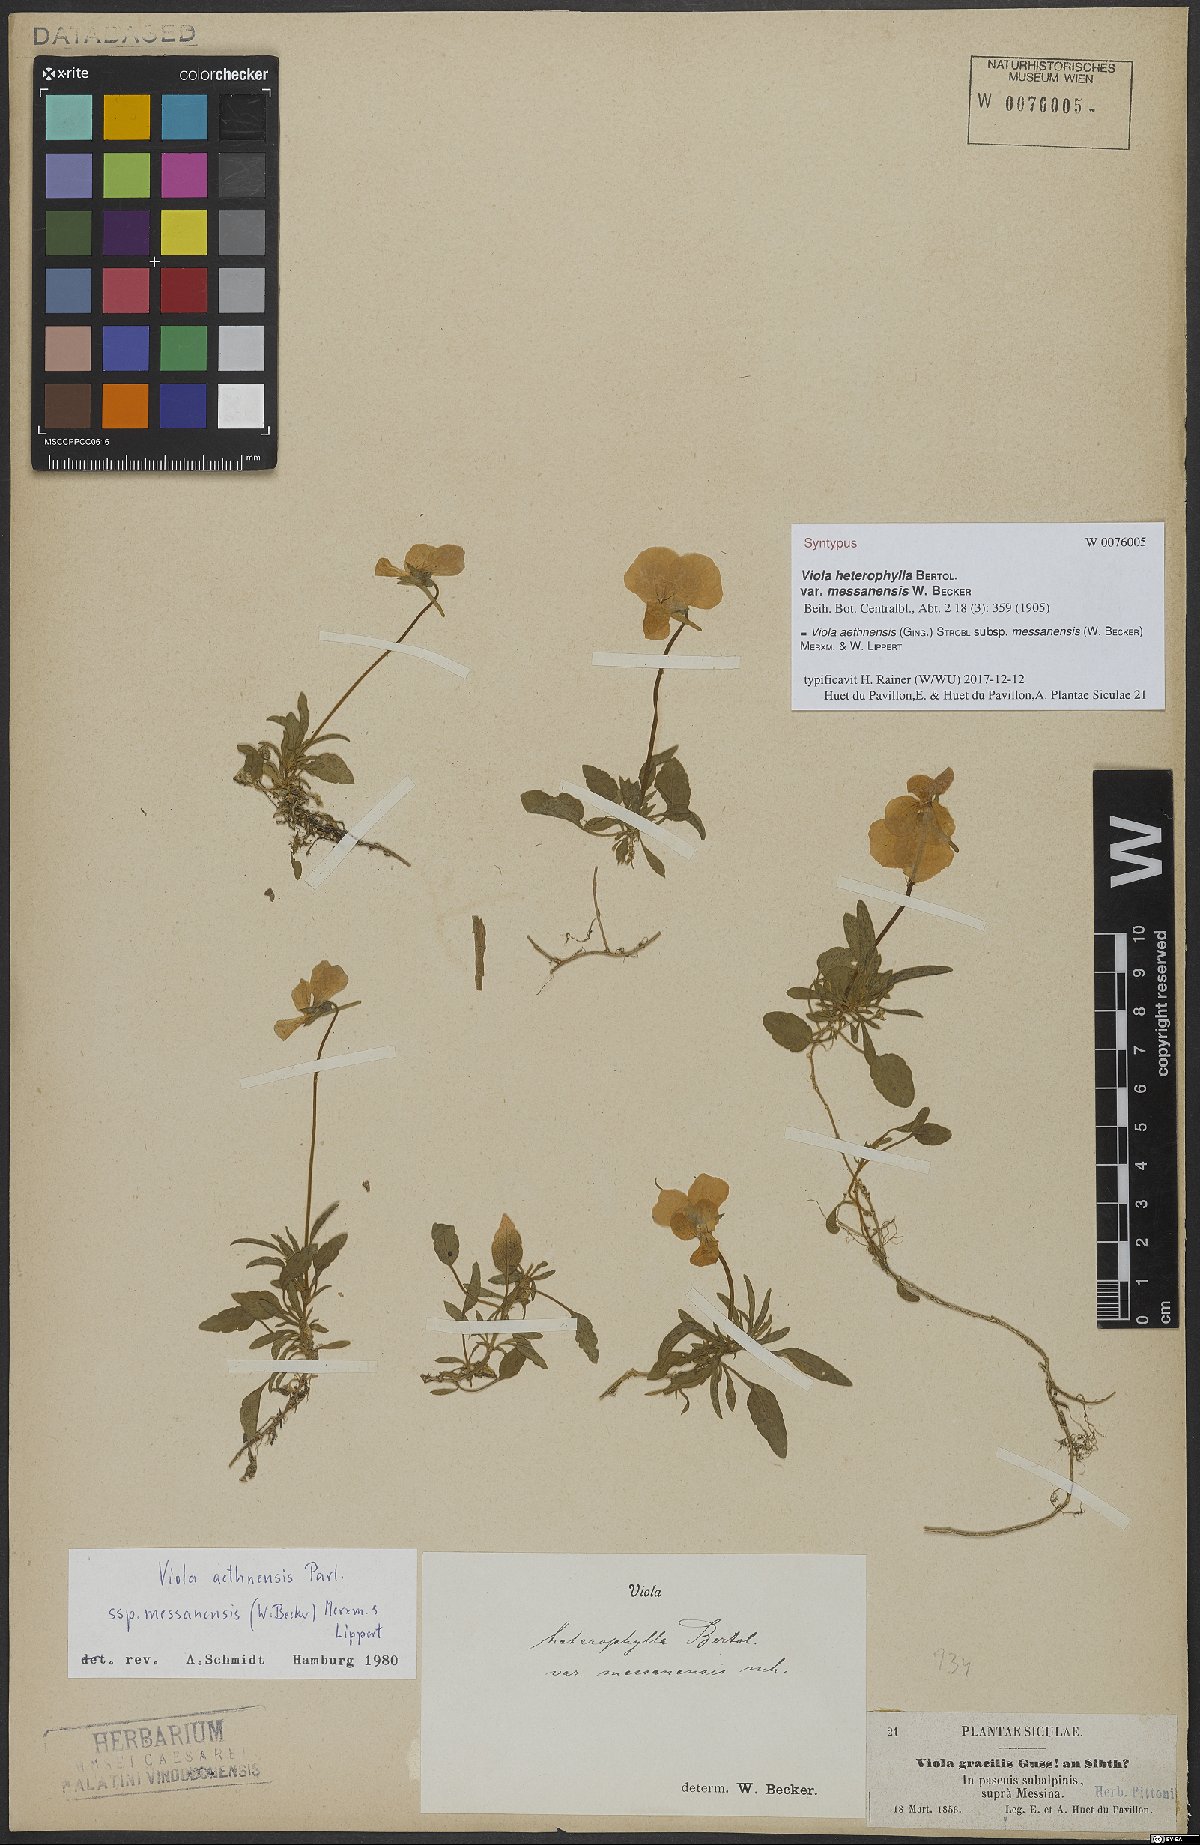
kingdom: Plantae
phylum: Tracheophyta
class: Magnoliopsida
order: Malpighiales
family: Violaceae
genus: Viola
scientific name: Viola aethnensis
